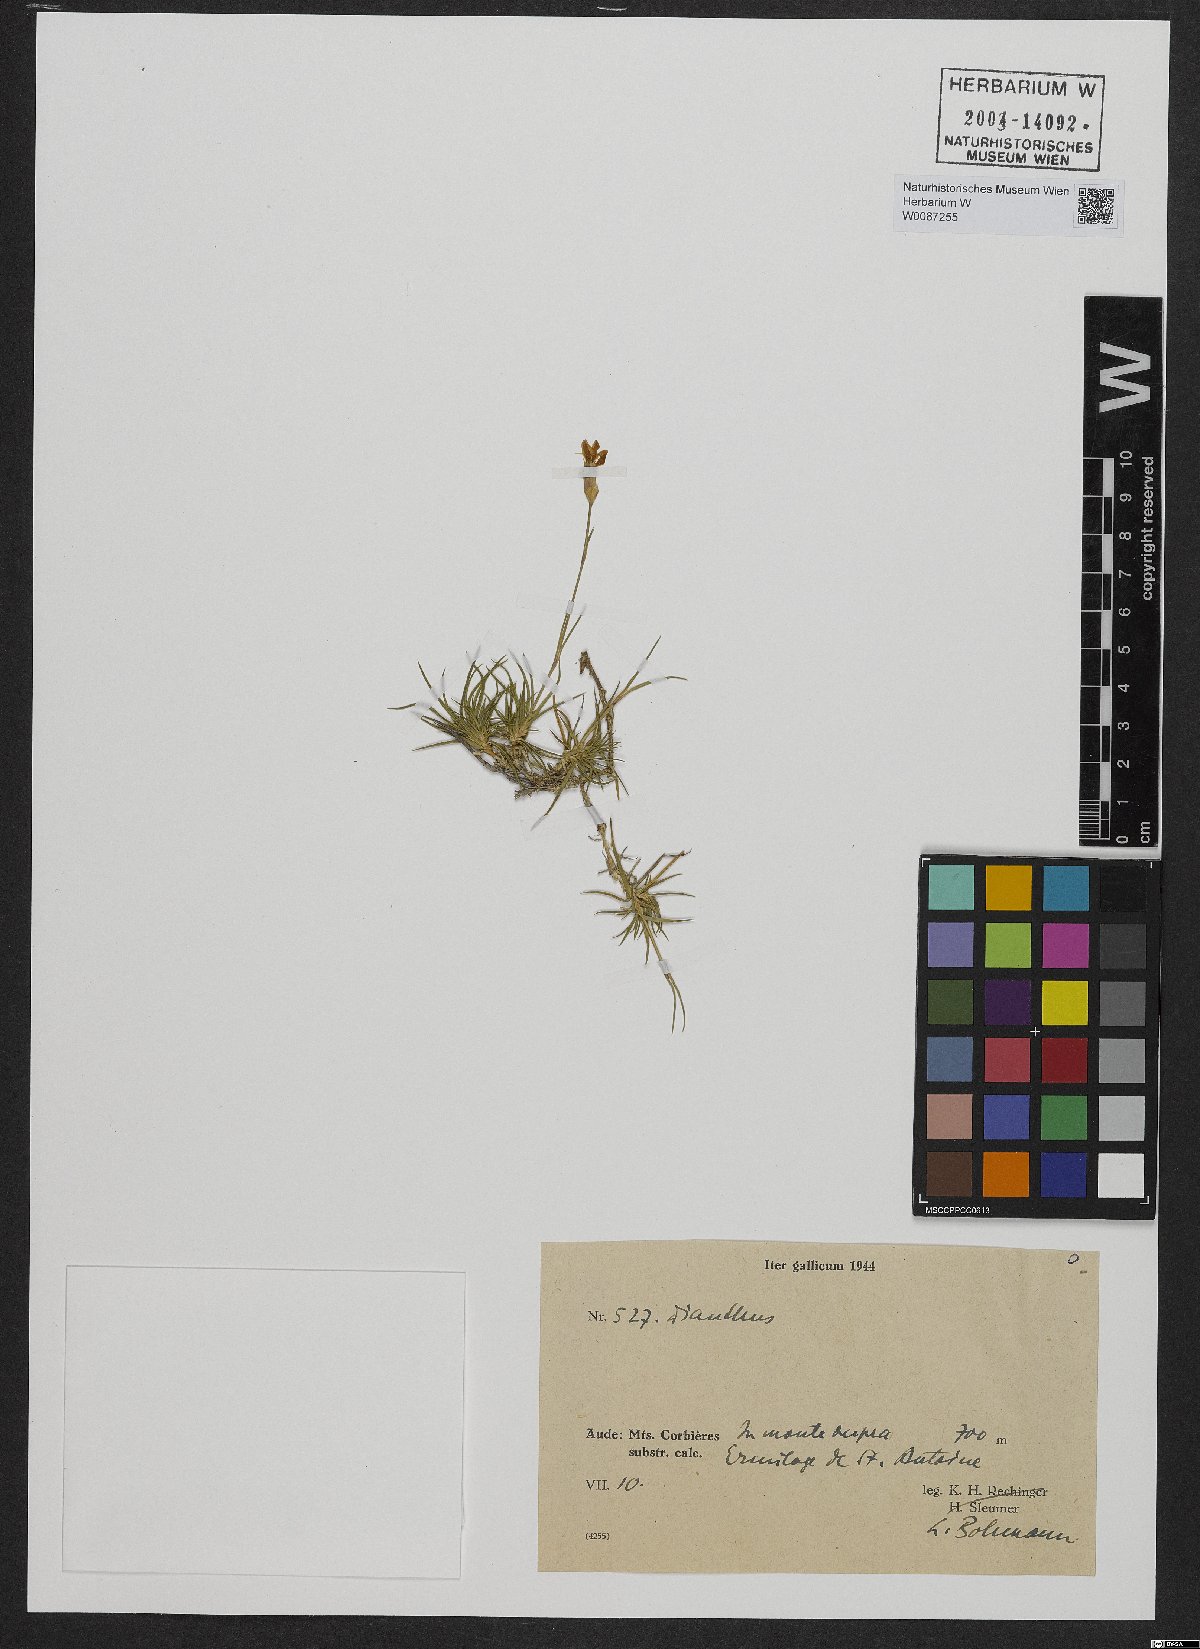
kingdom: Plantae
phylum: Tracheophyta
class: Liliopsida
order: Poales
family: Poaceae
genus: Achnatherum
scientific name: Achnatherum calamagrostis
